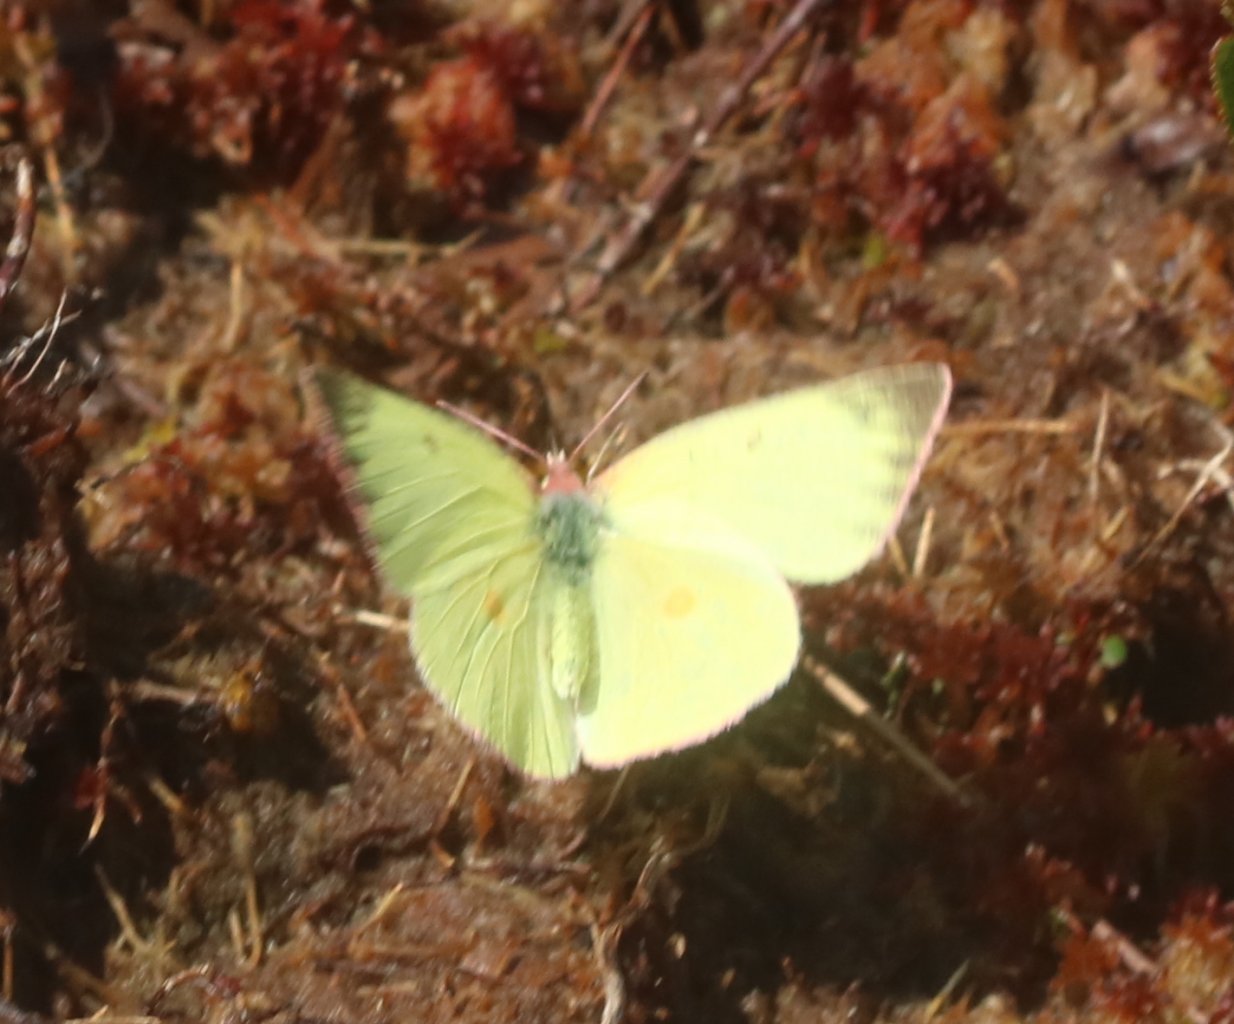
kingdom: Animalia
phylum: Arthropoda
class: Insecta
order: Lepidoptera
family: Pieridae
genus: Colias
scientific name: Colias interior
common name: Pink-edged Sulphur
